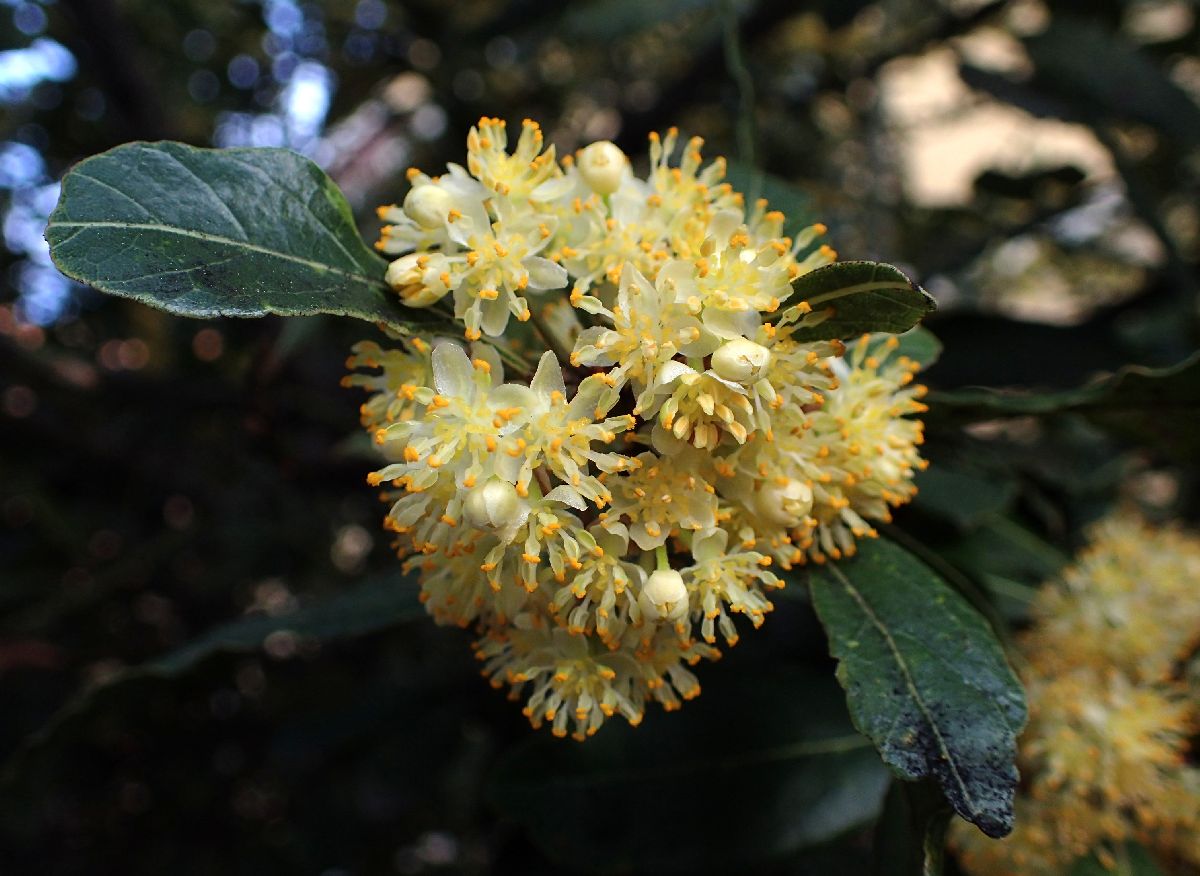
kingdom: Plantae
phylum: Tracheophyta
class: Magnoliopsida
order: Laurales
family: Lauraceae
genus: Laurus
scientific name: Laurus nobilis
